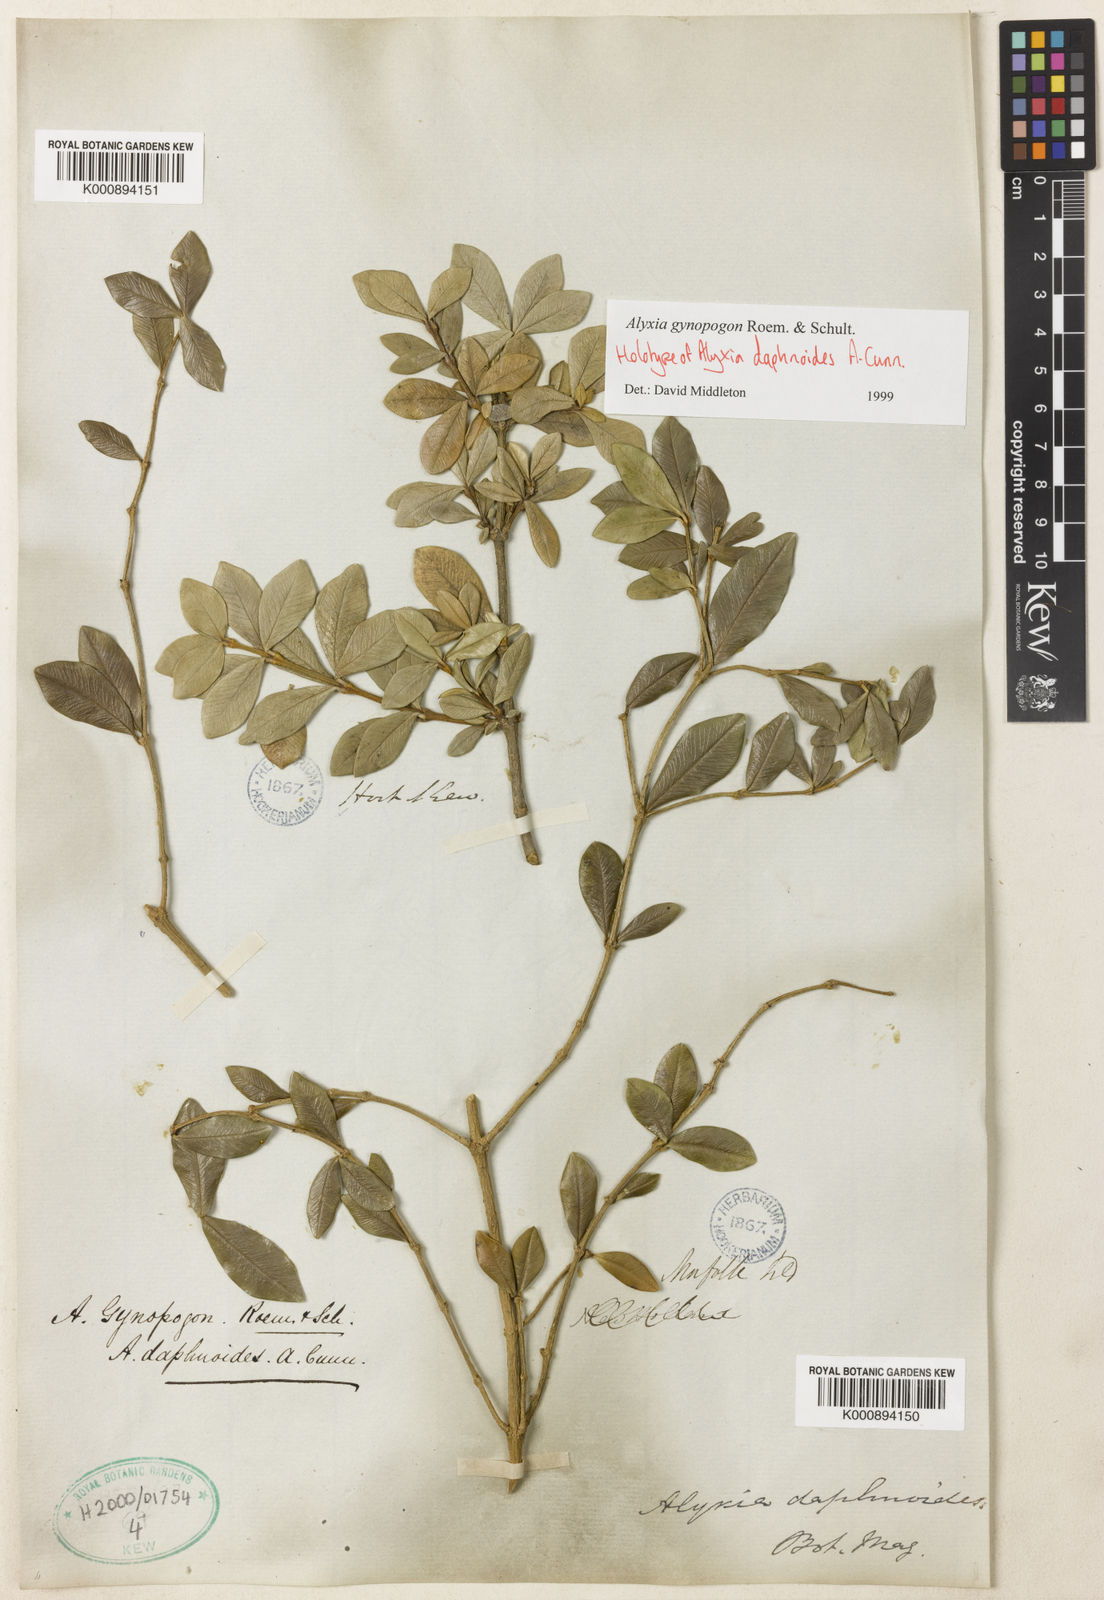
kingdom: Plantae
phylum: Tracheophyta
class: Magnoliopsida
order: Gentianales
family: Apocynaceae
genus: Alyxia
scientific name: Alyxia gynopogon
